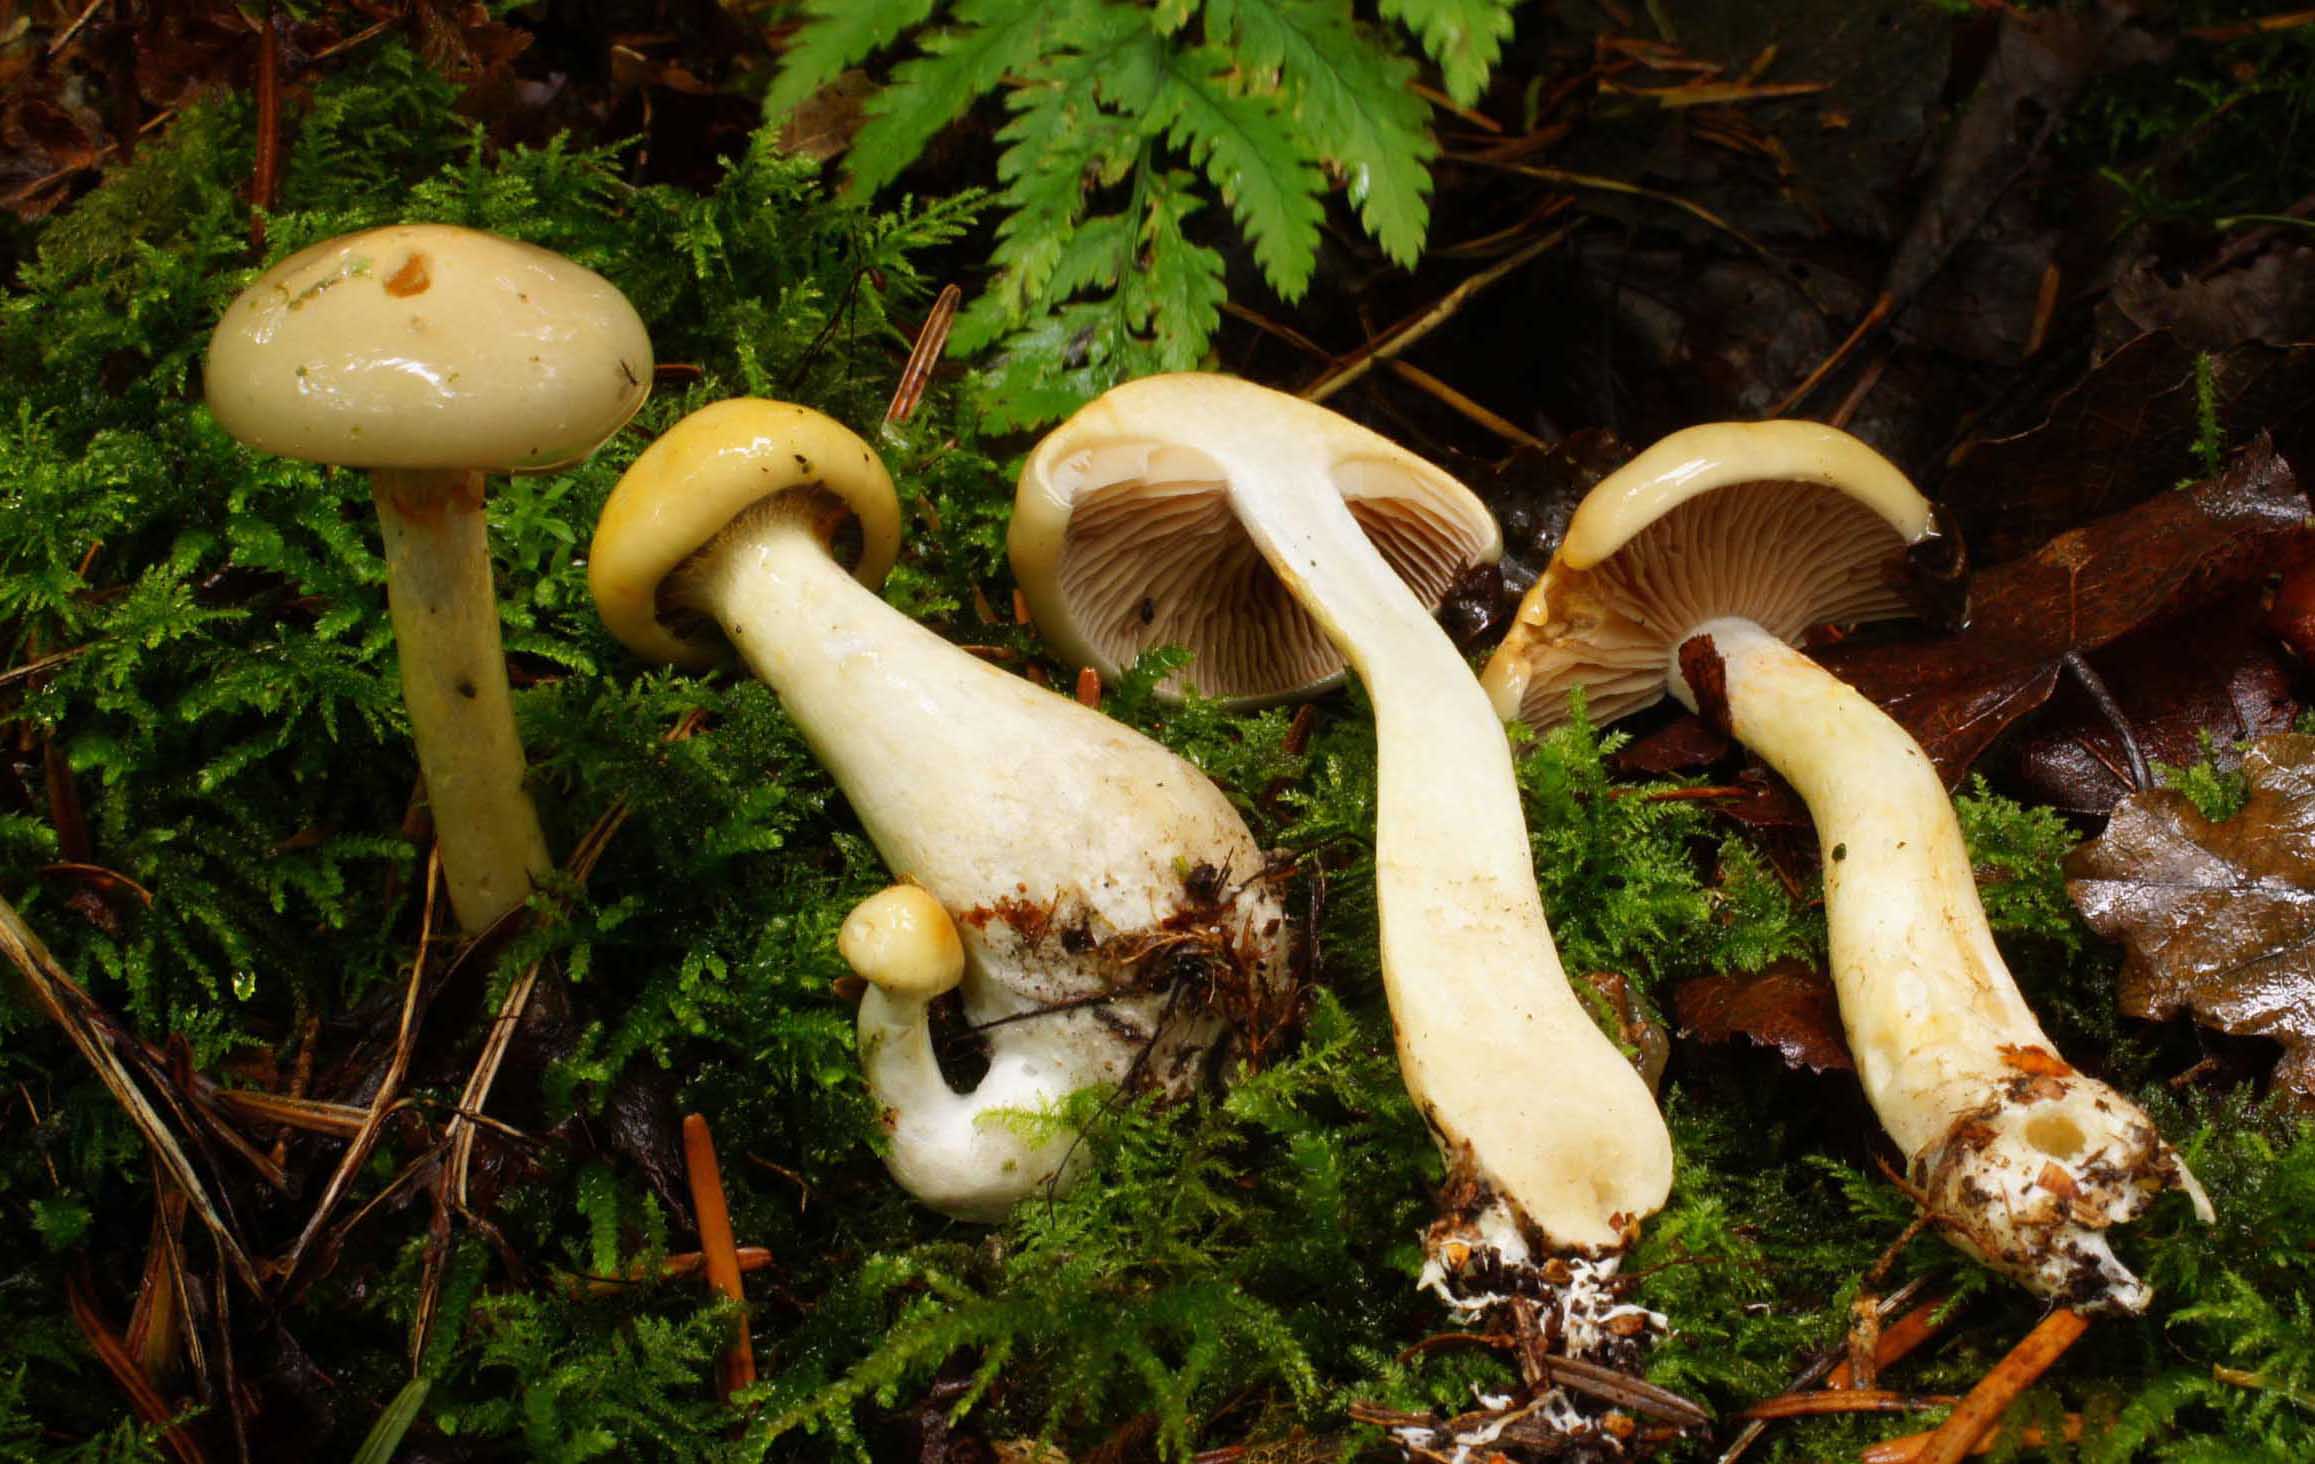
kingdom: Fungi
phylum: Basidiomycota
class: Agaricomycetes
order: Agaricales
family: Cortinariaceae
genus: Cortinarius
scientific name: Cortinarius delibutus
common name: gul slørhat
